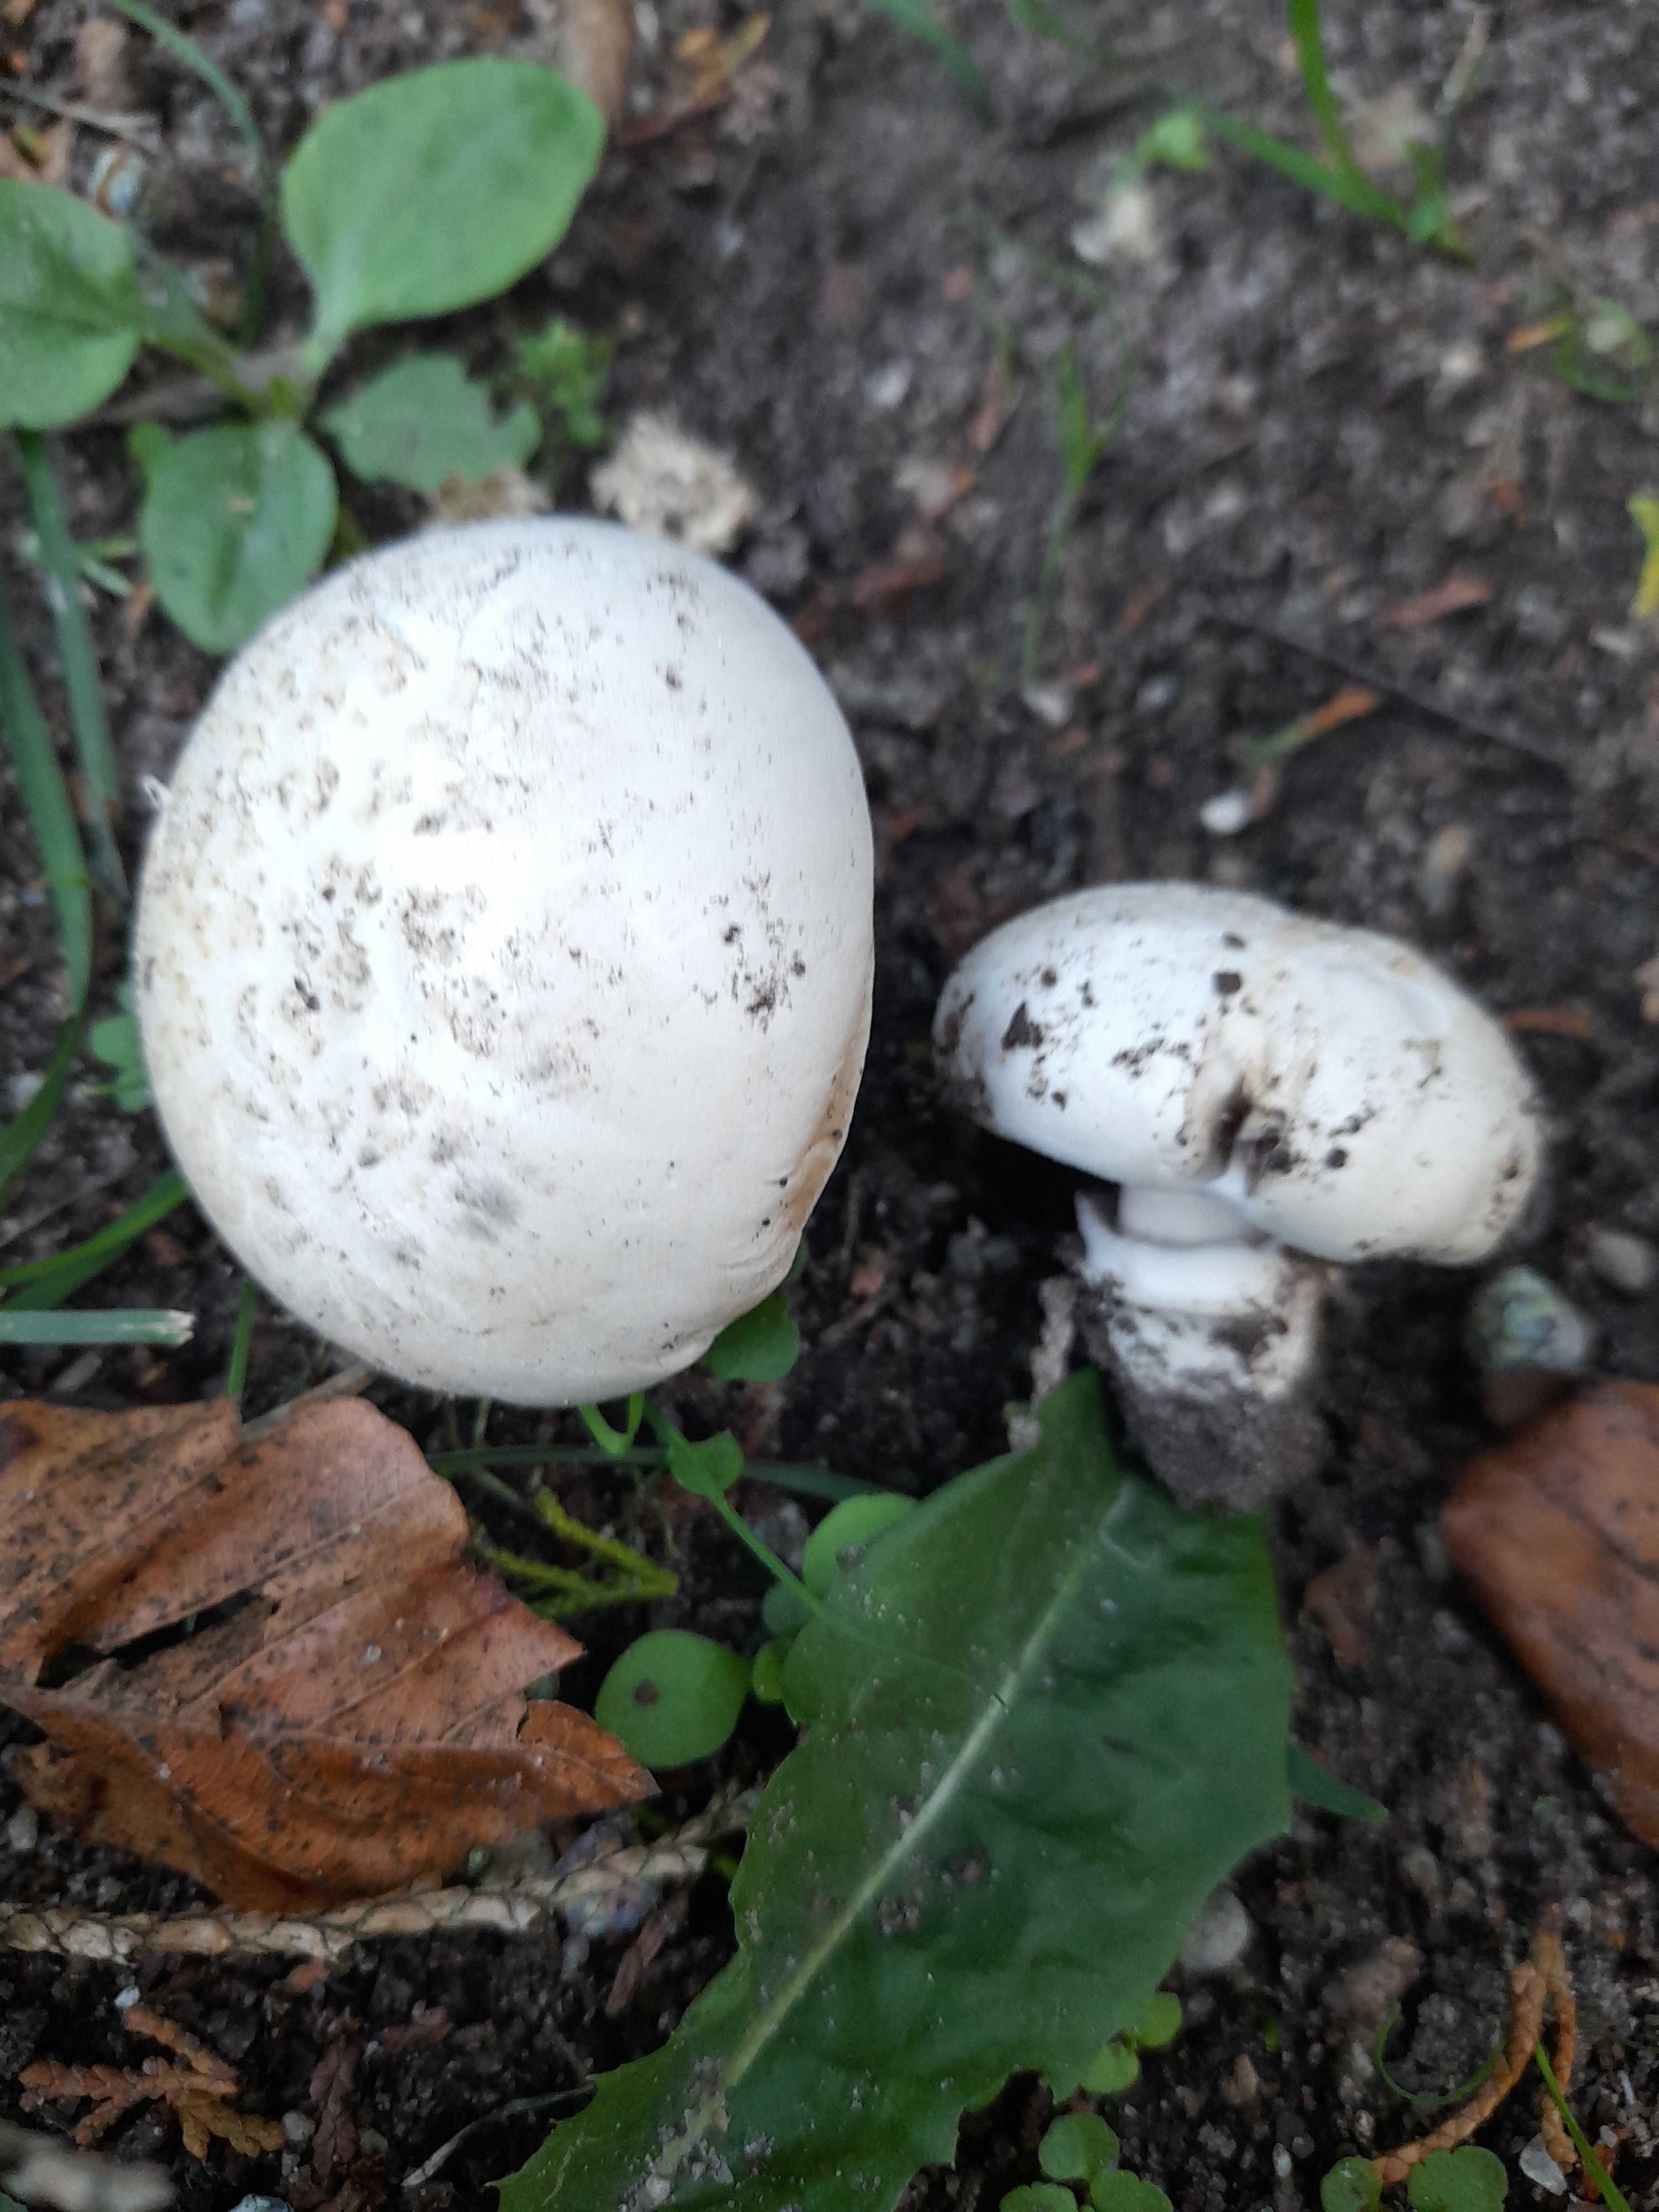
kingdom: Fungi
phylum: Basidiomycota
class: Agaricomycetes
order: Agaricales
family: Agaricaceae
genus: Agaricus
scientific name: Agaricus bitorquis
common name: vej-champignon
